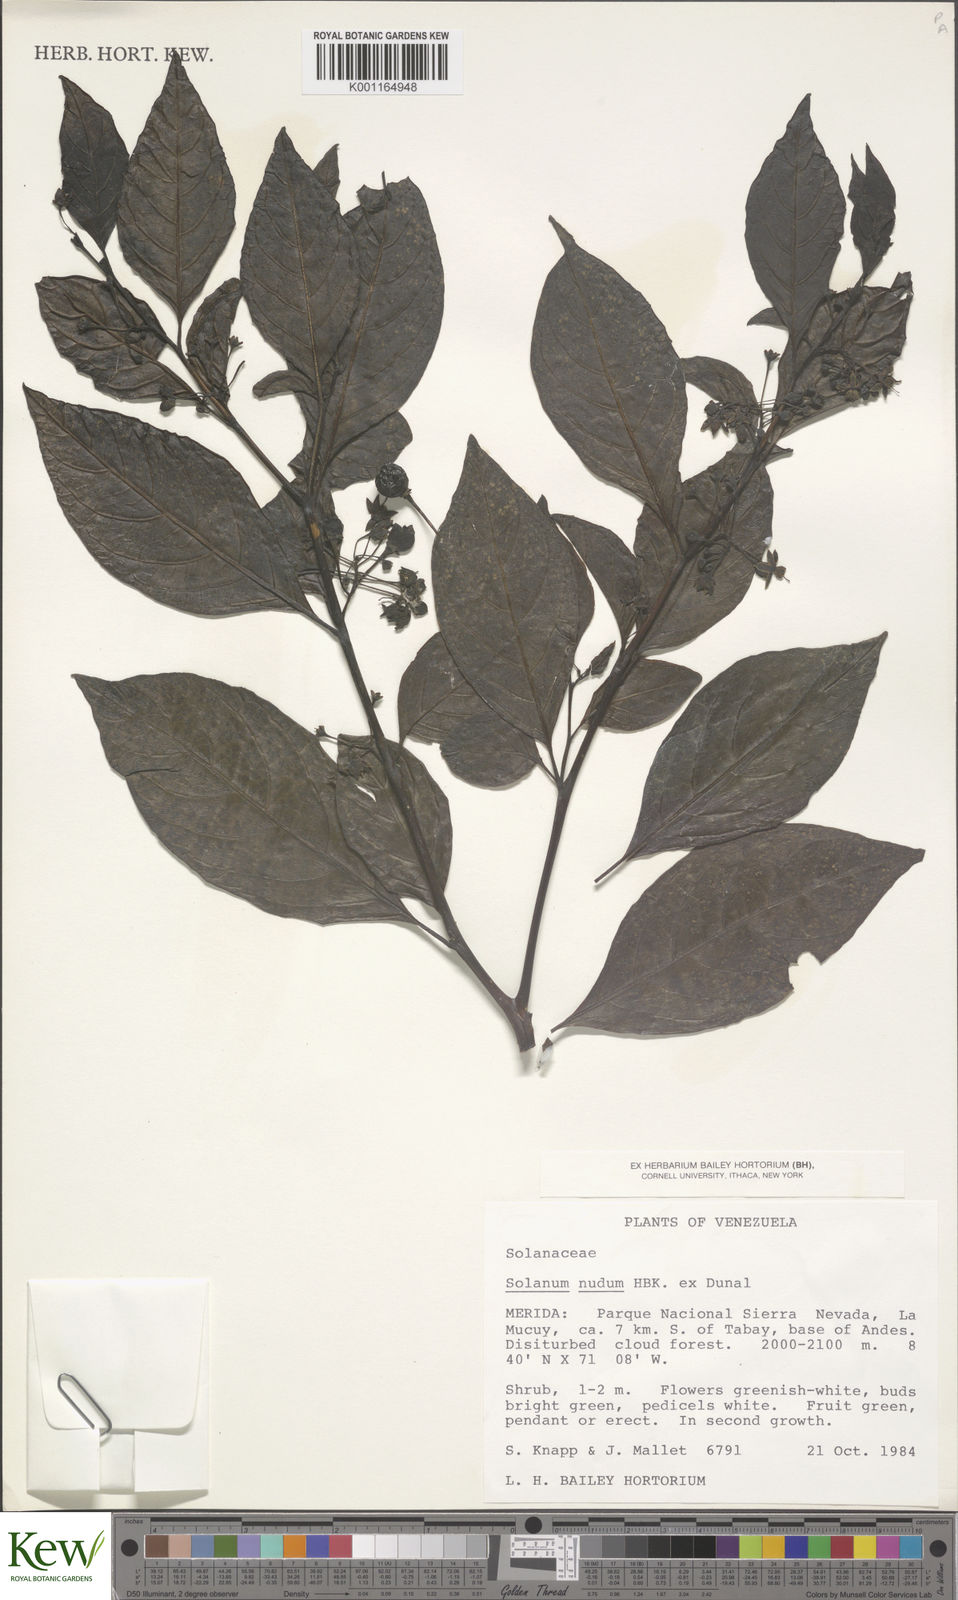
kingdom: Plantae
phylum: Tracheophyta
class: Magnoliopsida
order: Solanales
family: Solanaceae
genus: Solanum
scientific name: Solanum nudum
